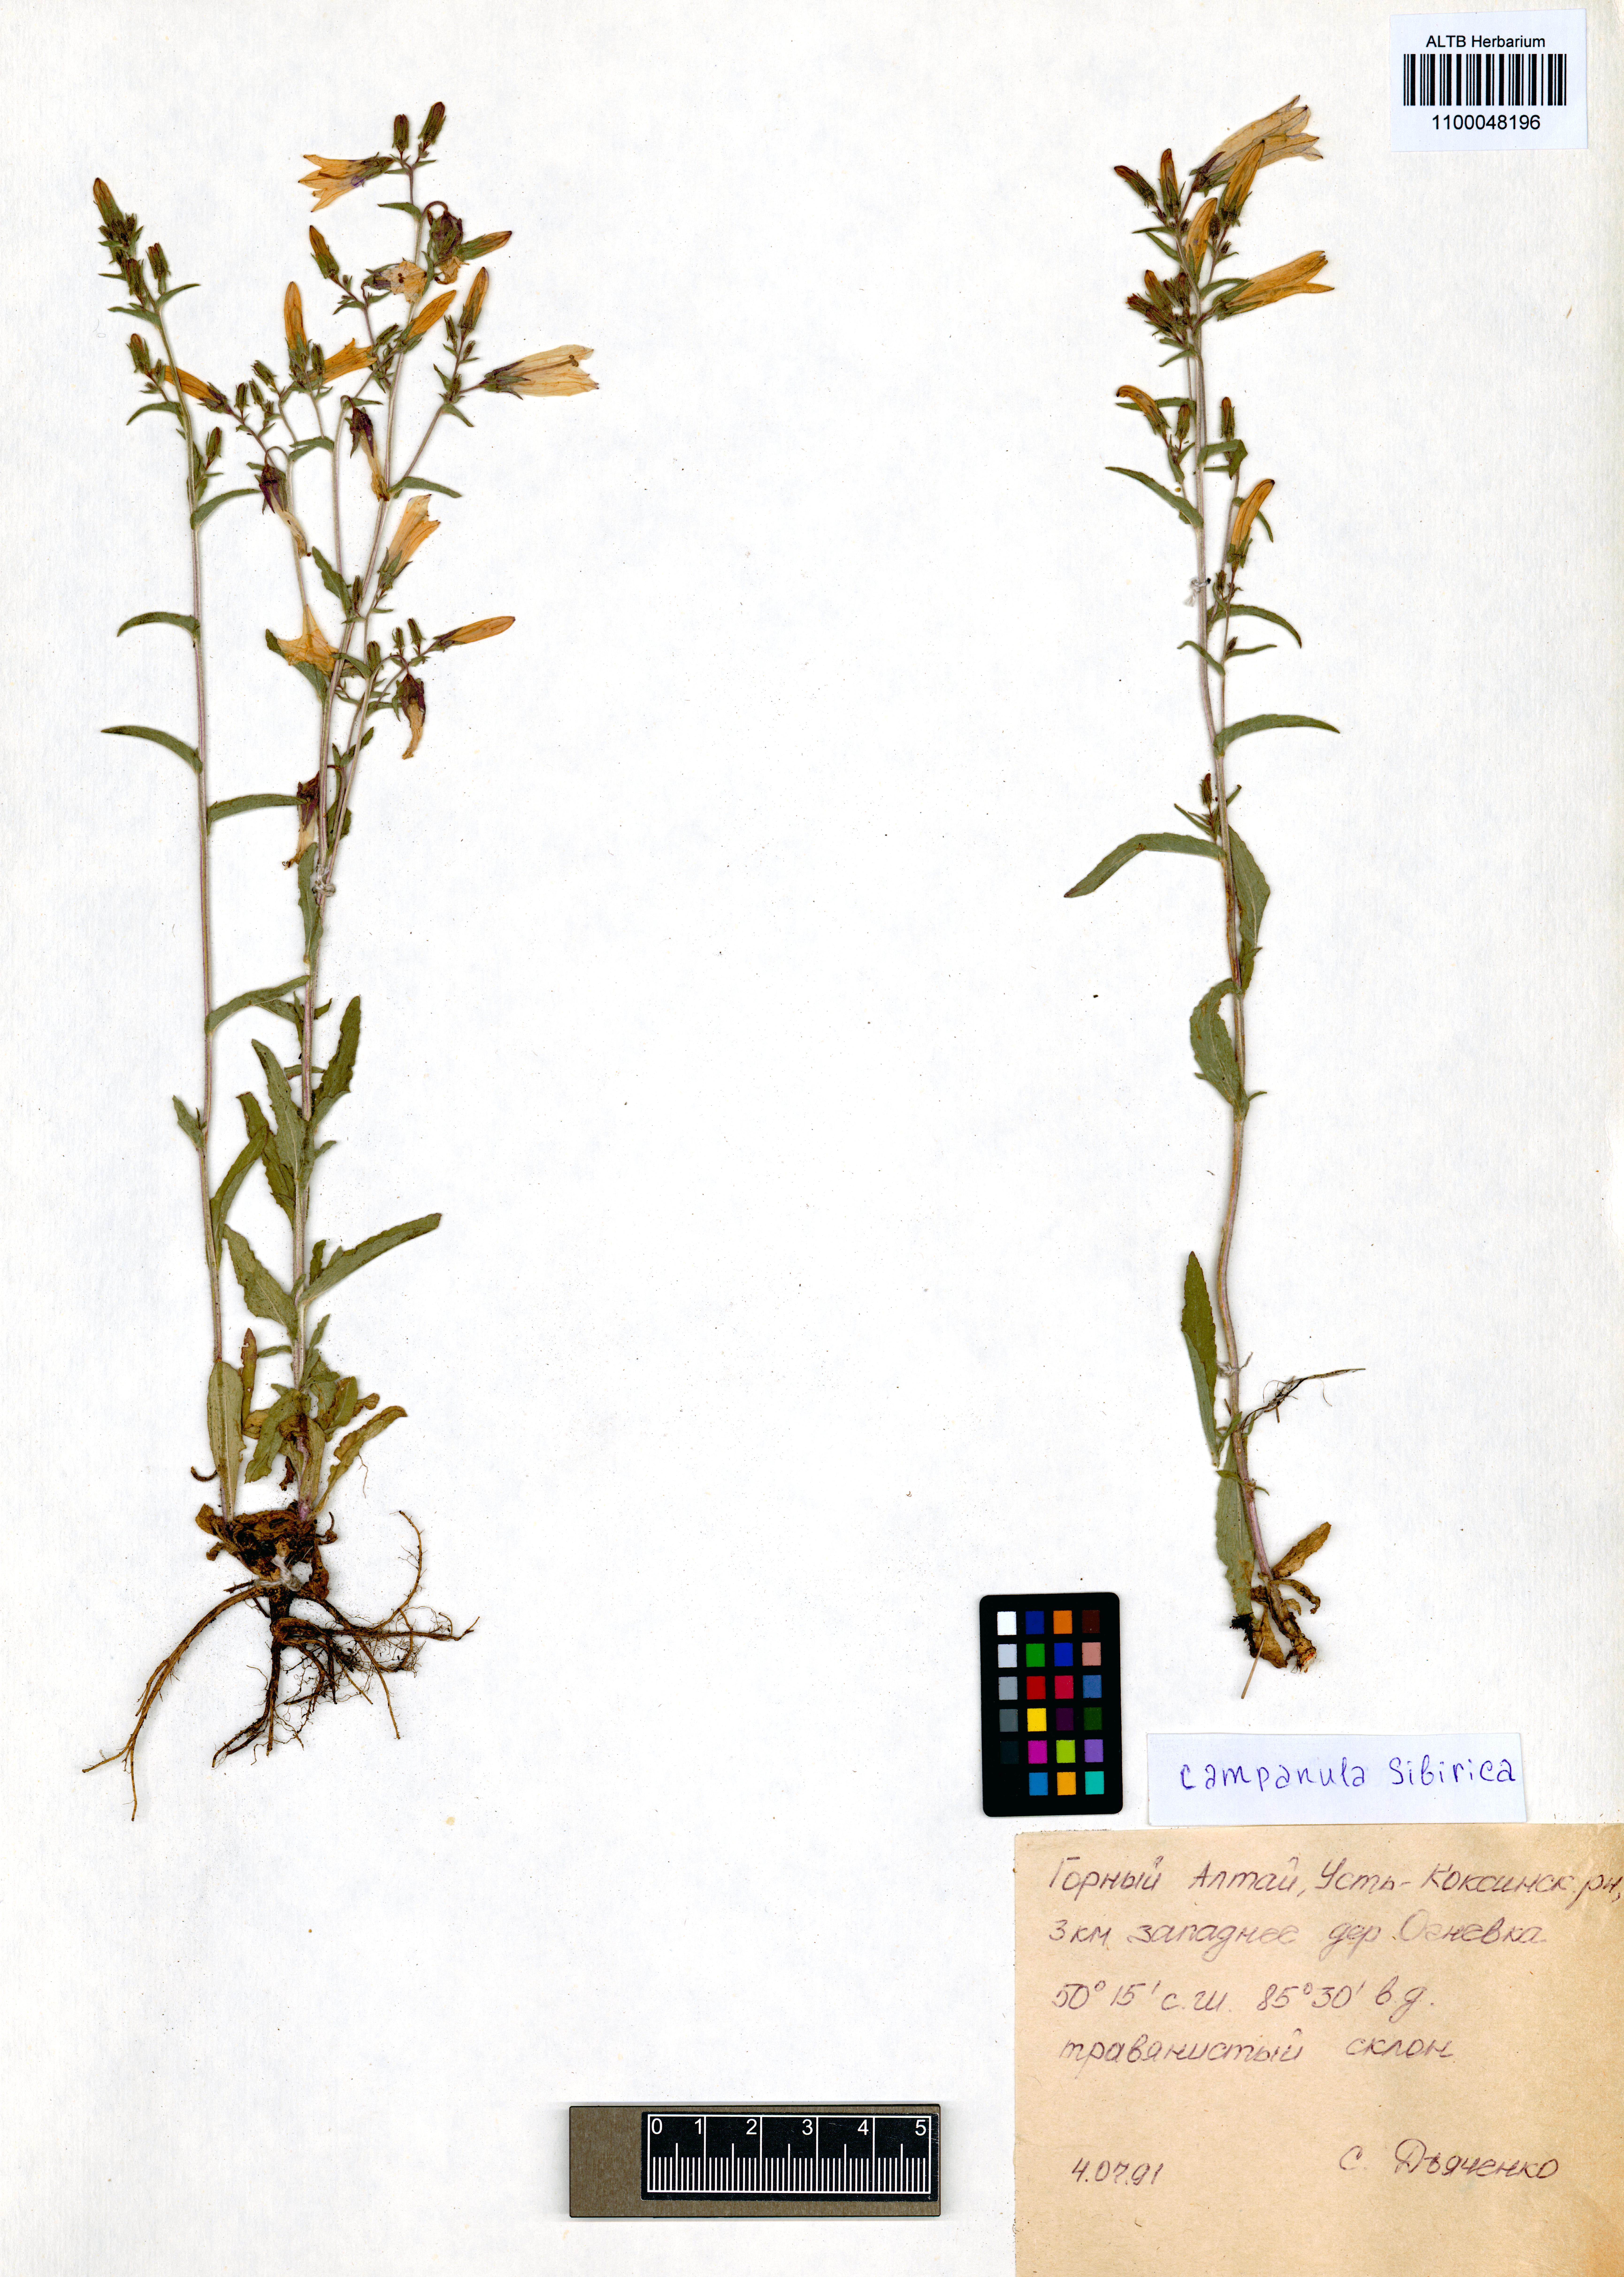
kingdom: Plantae
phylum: Tracheophyta
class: Magnoliopsida
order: Asterales
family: Campanulaceae
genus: Campanula
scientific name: Campanula sibirica
